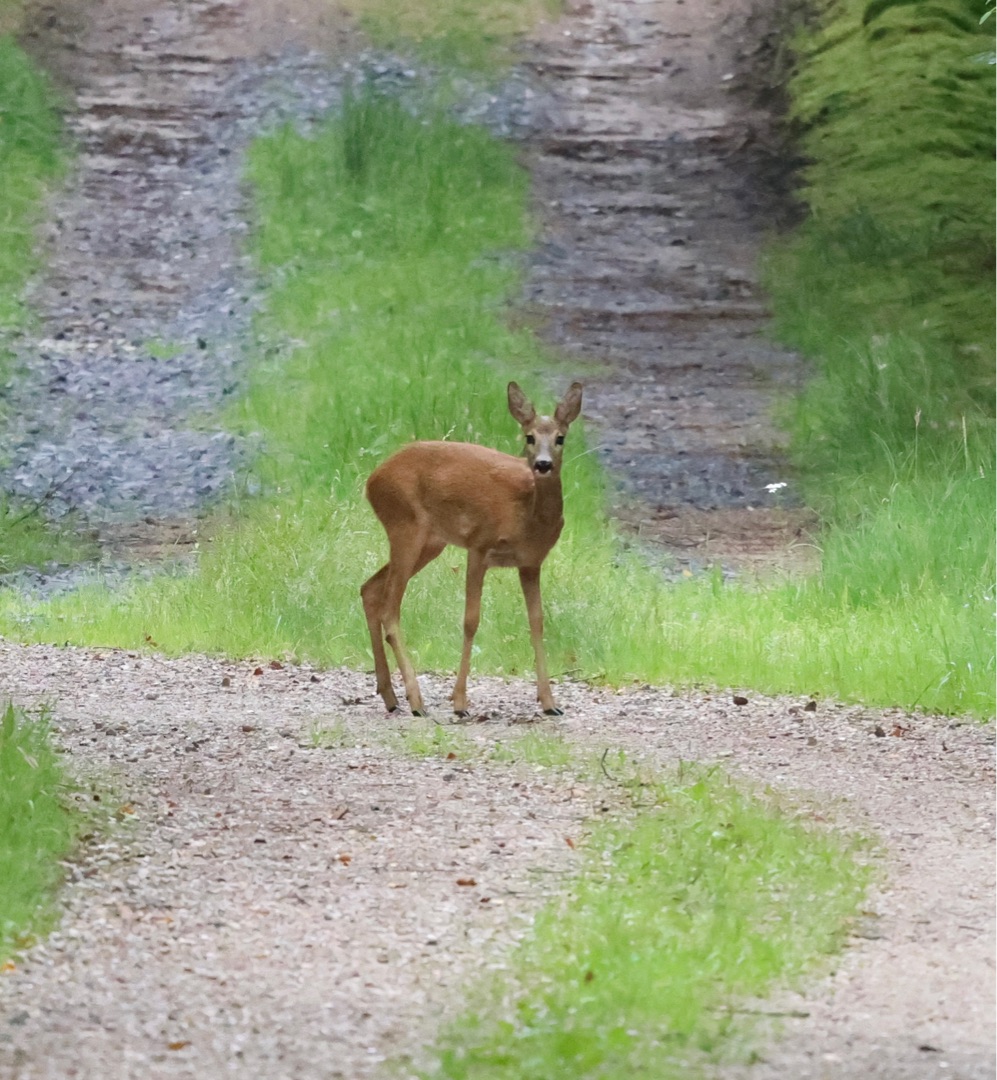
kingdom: Animalia
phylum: Chordata
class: Mammalia
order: Artiodactyla
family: Cervidae
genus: Capreolus
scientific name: Capreolus capreolus
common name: Rådyr
